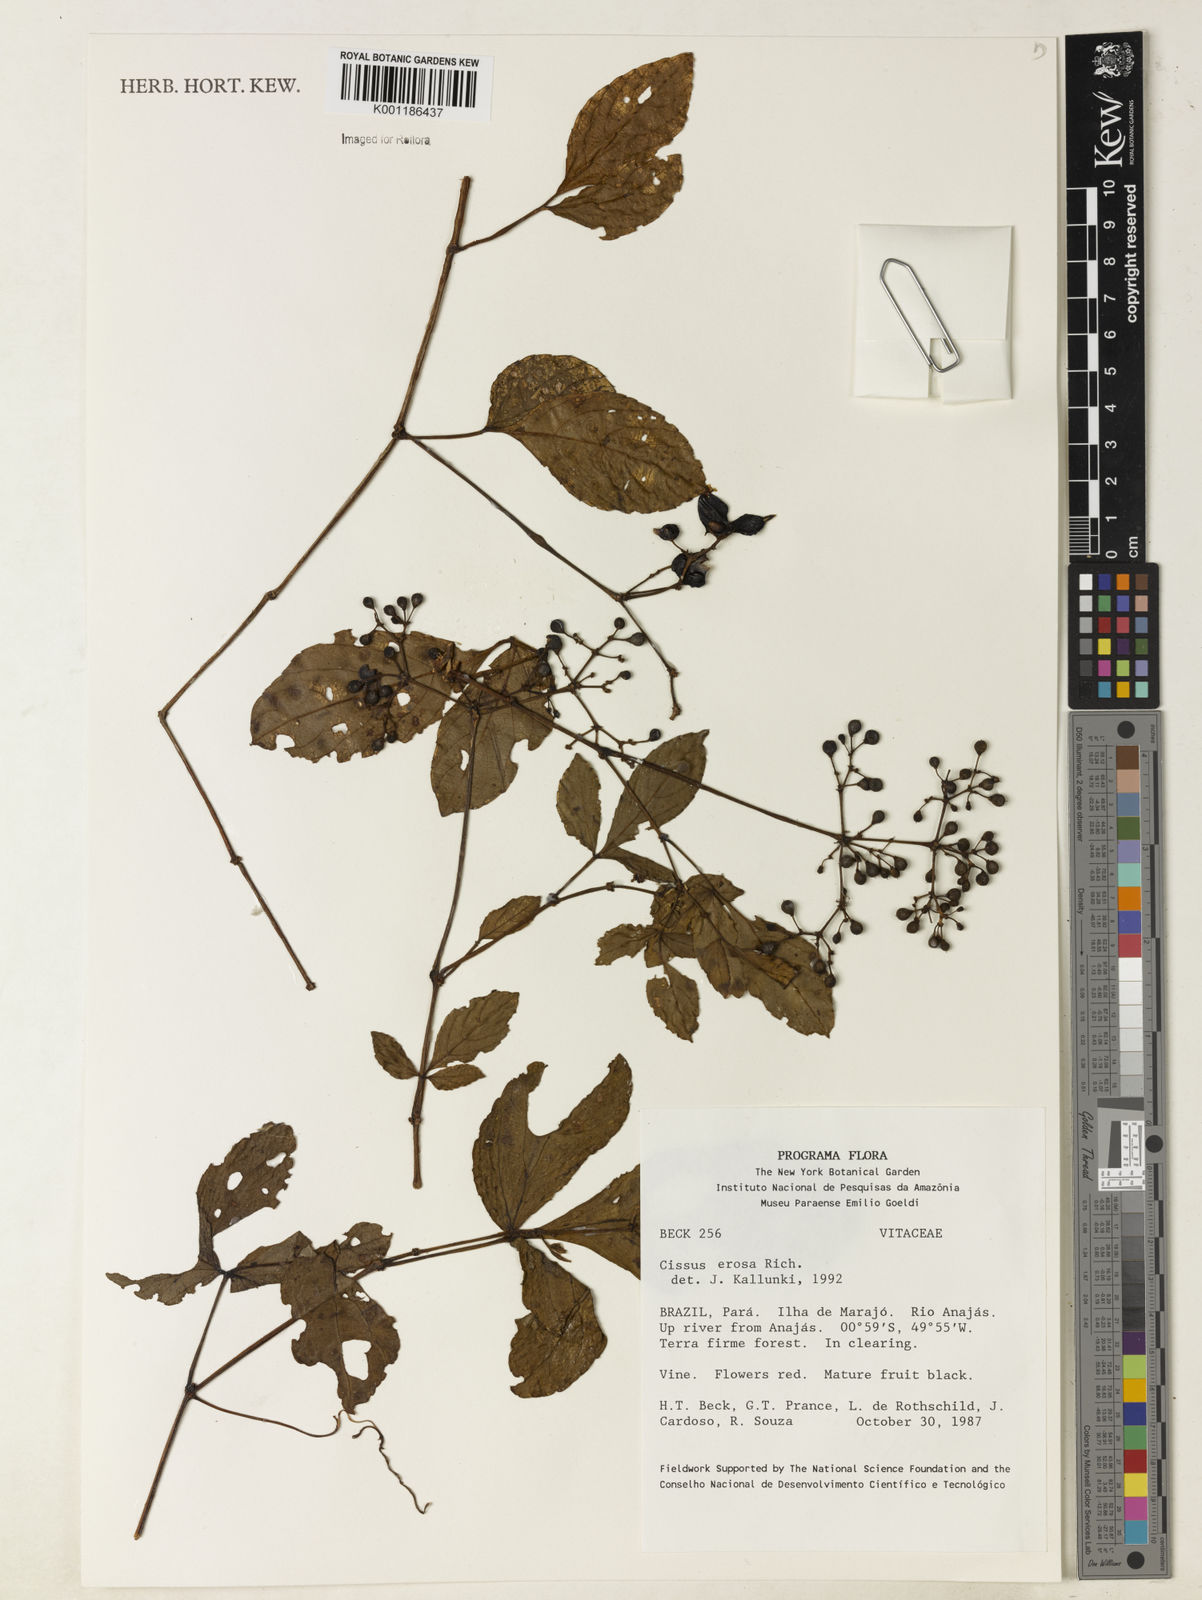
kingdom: Plantae
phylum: Tracheophyta
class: Magnoliopsida
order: Vitales
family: Vitaceae
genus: Cissus
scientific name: Cissus erosa
